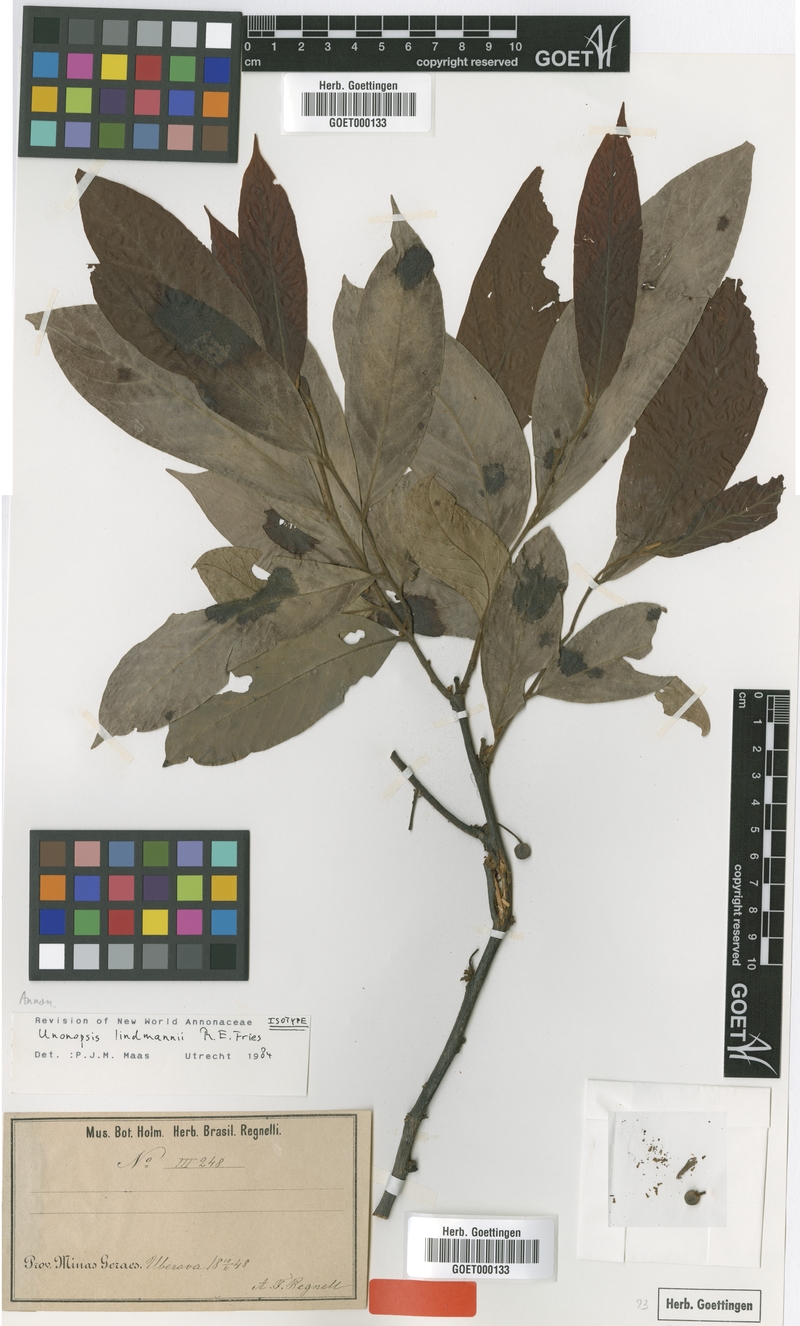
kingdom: Plantae
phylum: Tracheophyta
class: Magnoliopsida
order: Magnoliales
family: Annonaceae
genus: Unonopsis
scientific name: Unonopsis guatterioides
